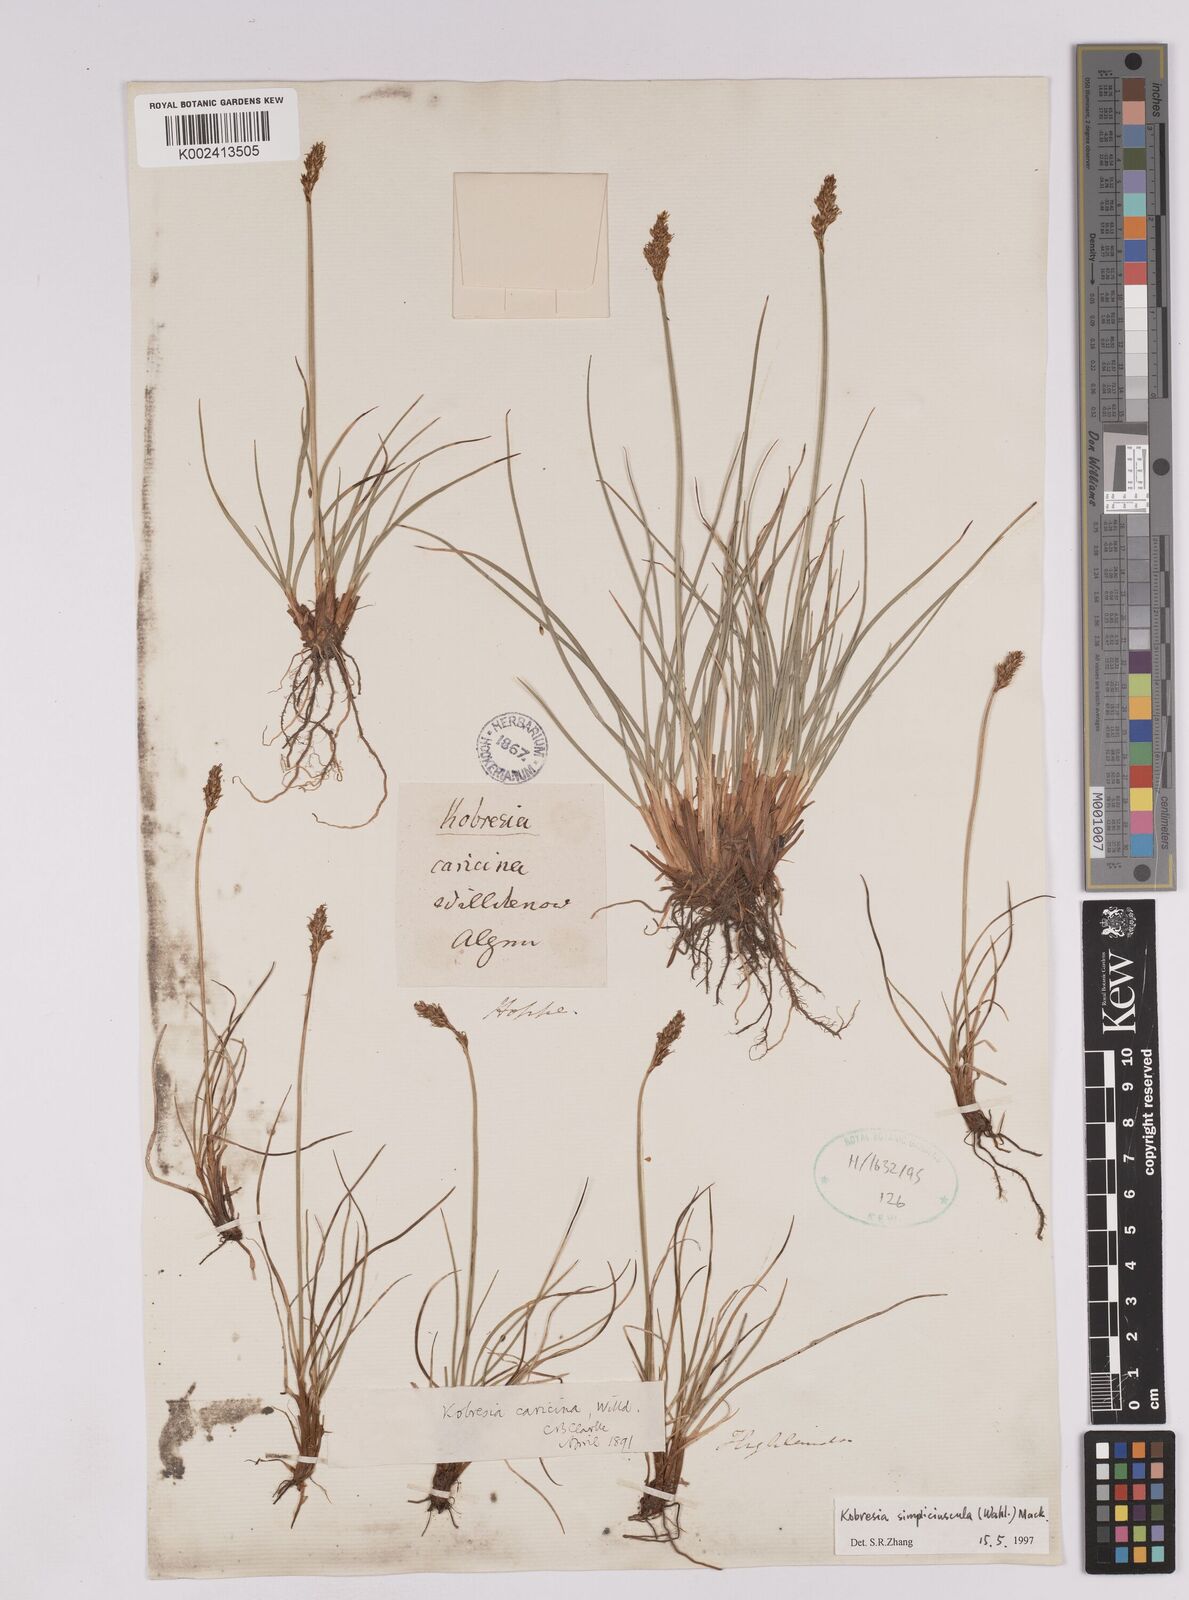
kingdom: Plantae
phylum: Tracheophyta
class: Liliopsida
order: Poales
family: Cyperaceae
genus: Carex
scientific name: Carex simpliciuscula
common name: Simple bog sedge
